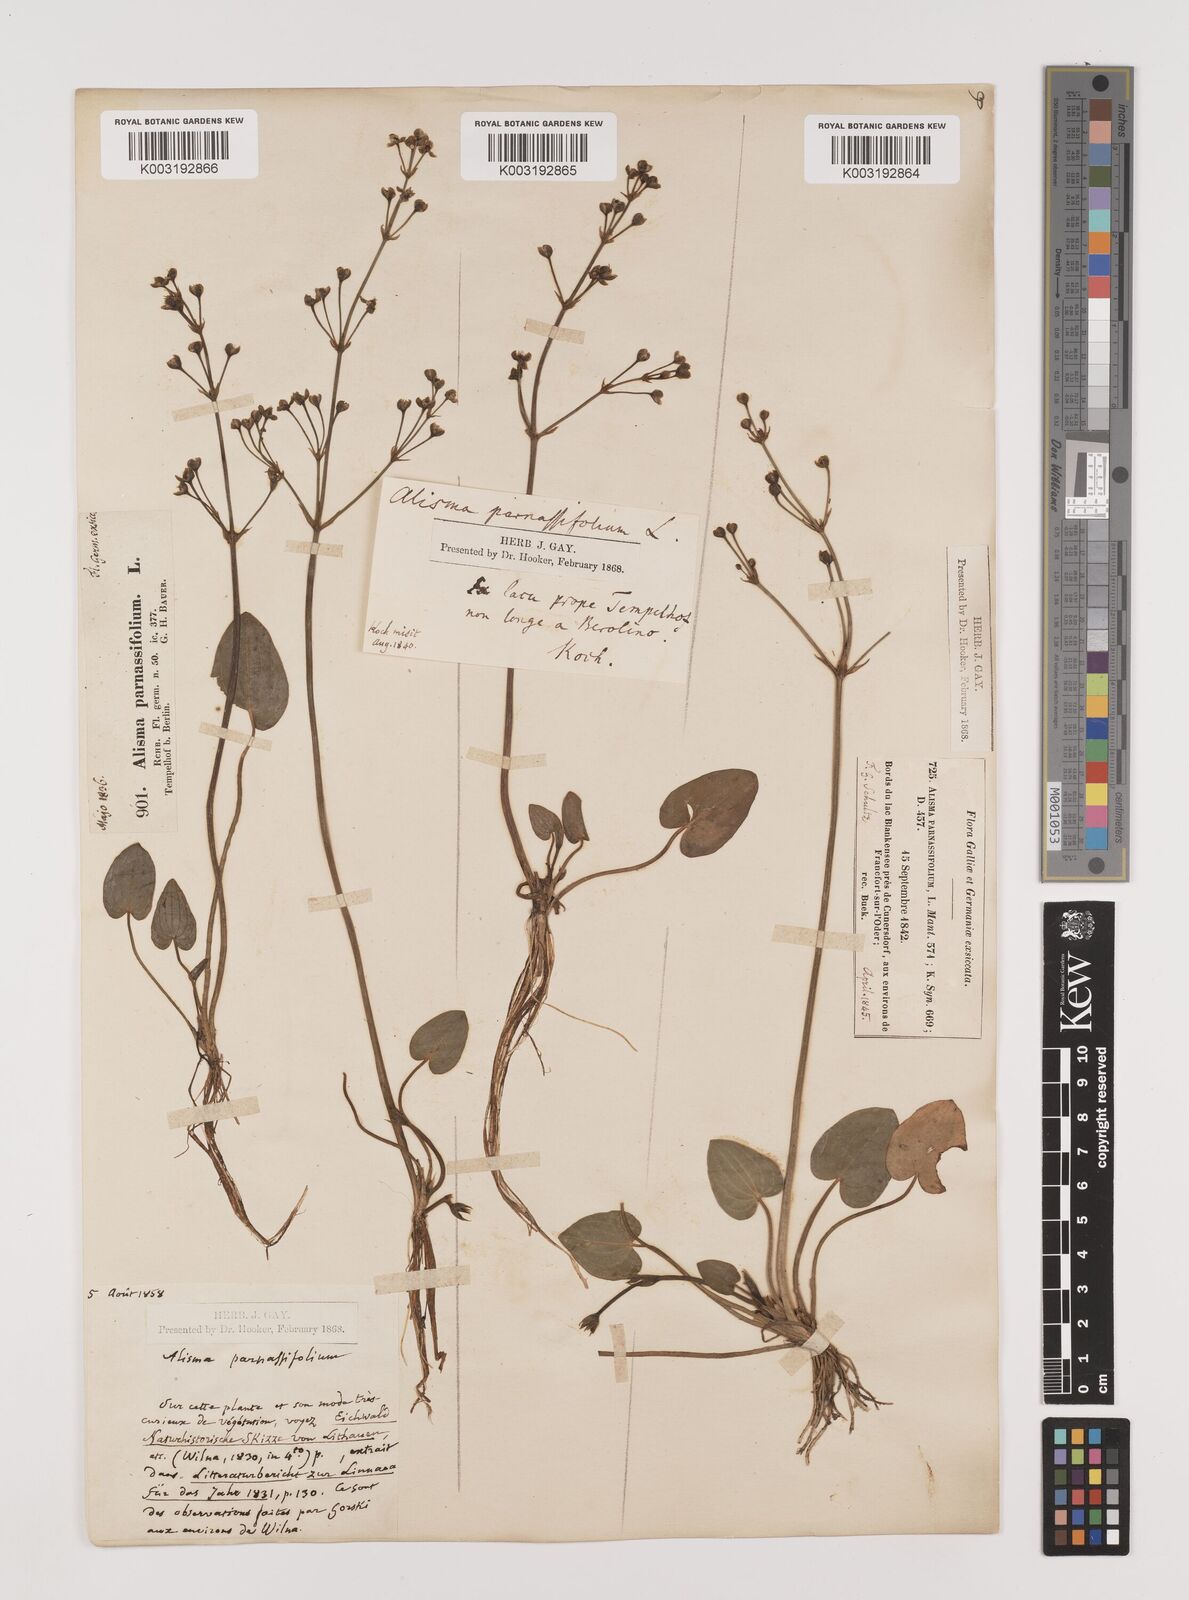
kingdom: Plantae
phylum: Tracheophyta
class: Liliopsida
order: Alismatales
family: Alismataceae
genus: Caldesia
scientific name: Caldesia parnassifolia
